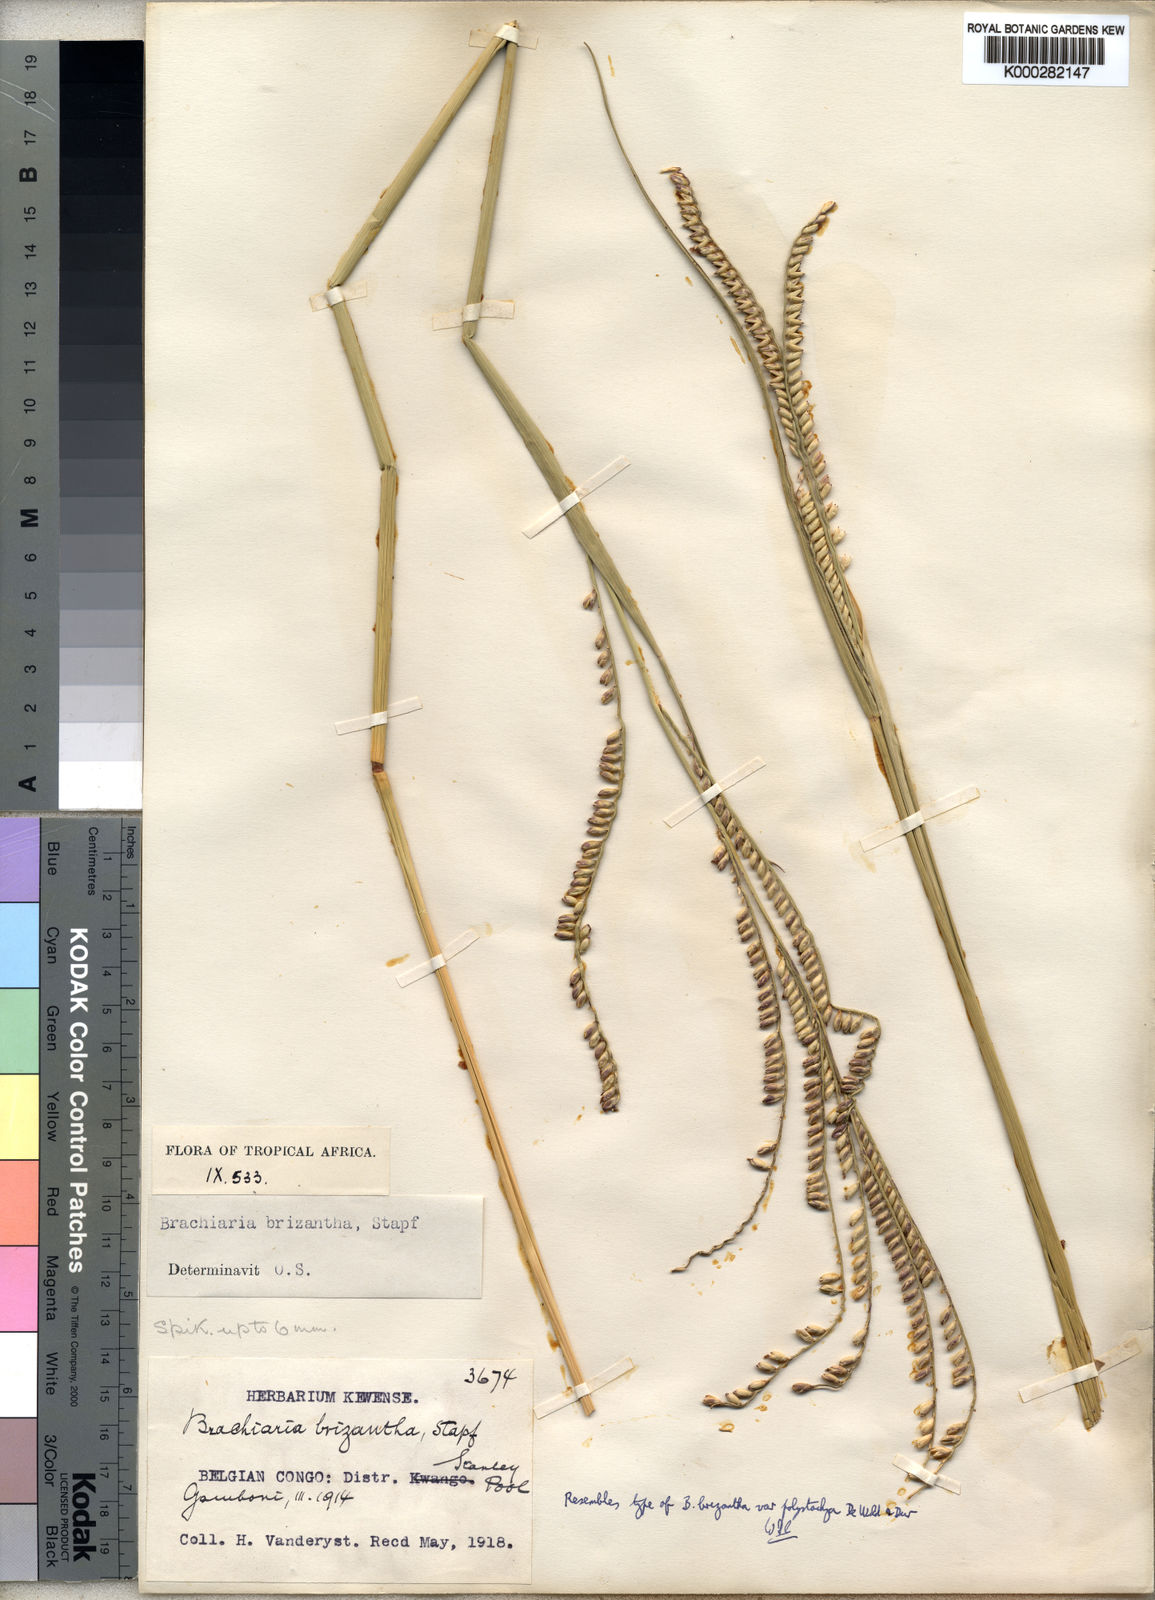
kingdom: Plantae
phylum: Tracheophyta
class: Liliopsida
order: Poales
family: Poaceae
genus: Urochloa
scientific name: Urochloa brizantha
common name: Palisade signalgrass
